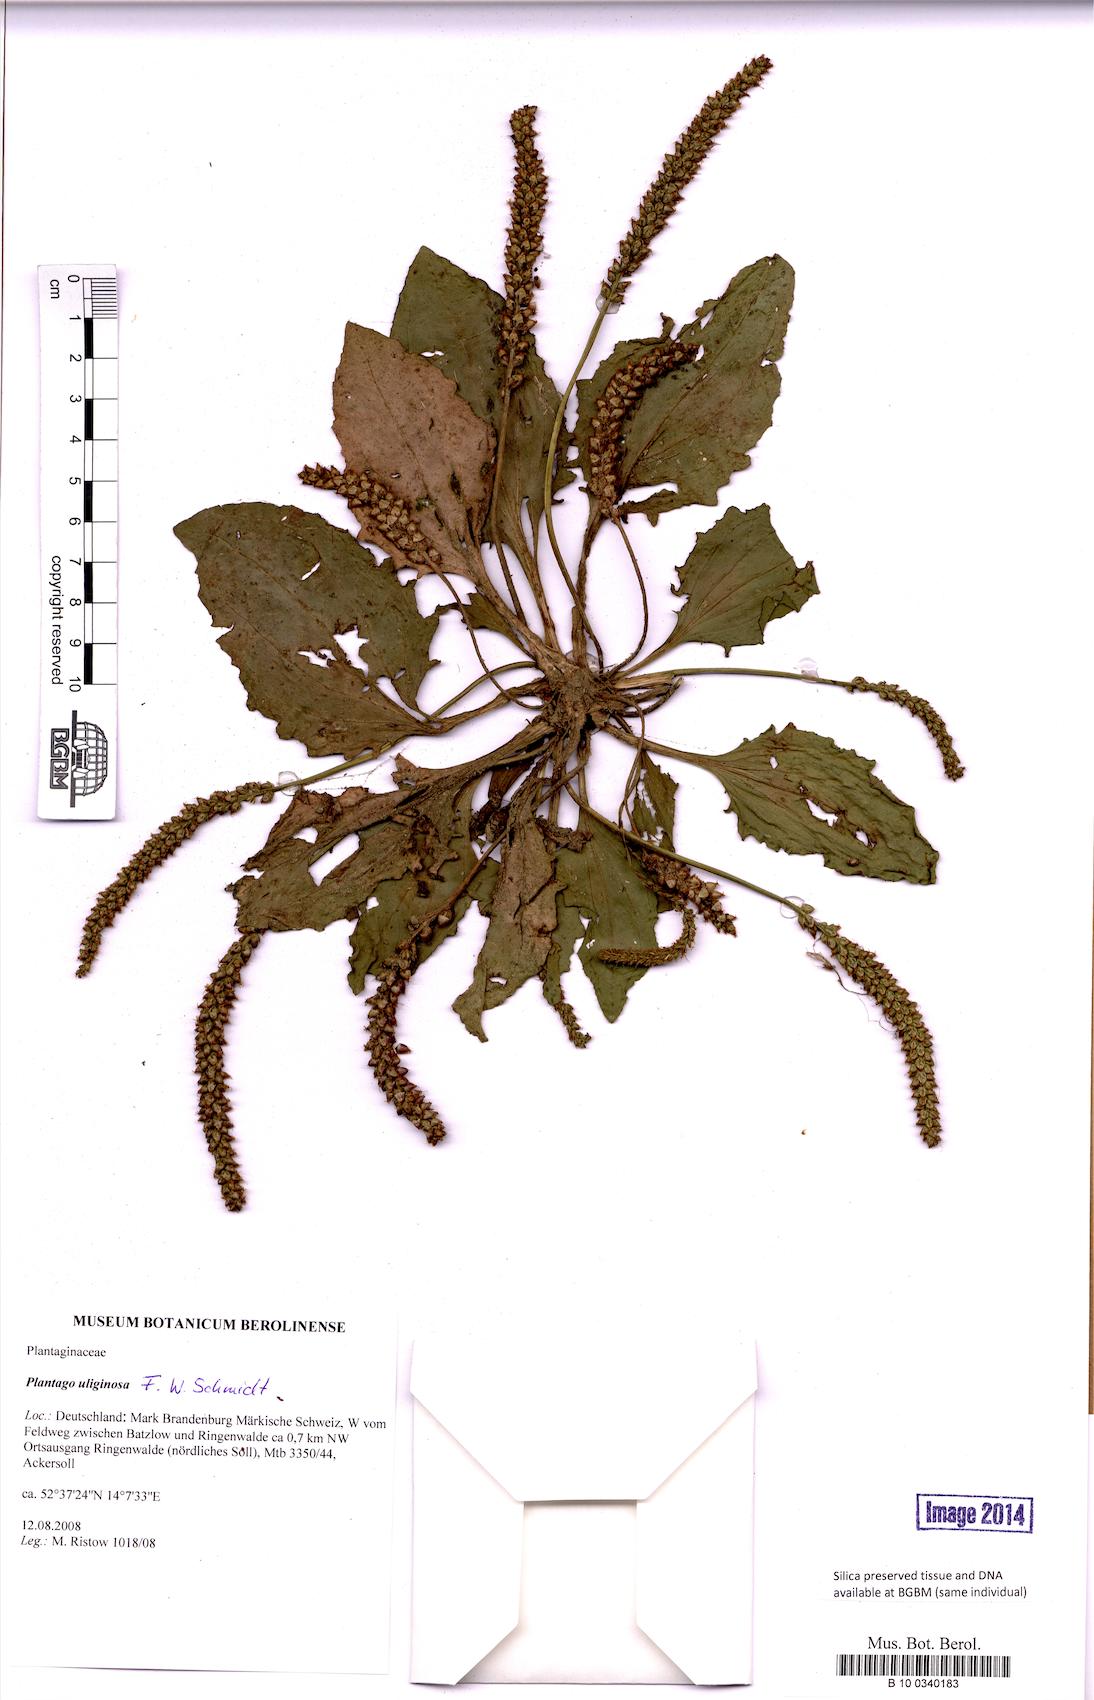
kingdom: Plantae
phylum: Tracheophyta
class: Magnoliopsida
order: Lamiales
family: Plantaginaceae
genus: Plantago
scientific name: Plantago uliginosa
